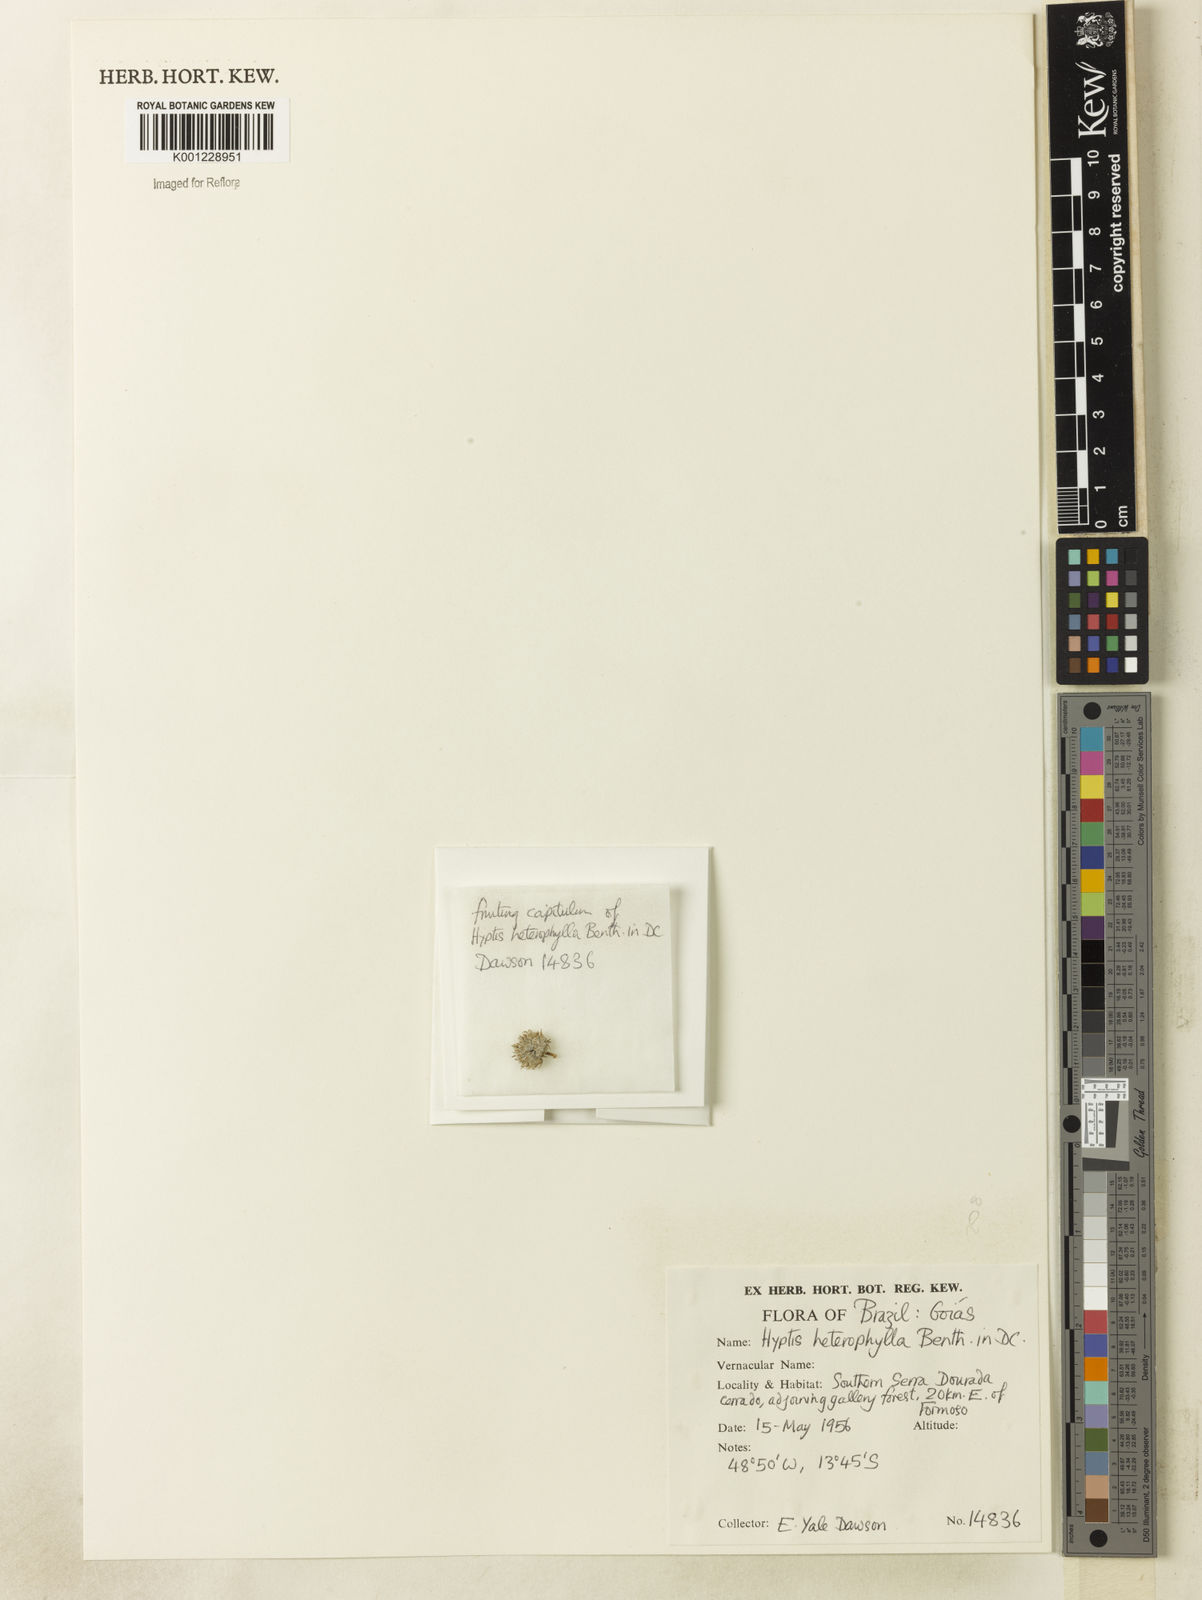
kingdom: Plantae
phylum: Tracheophyta
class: Magnoliopsida
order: Lamiales
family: Lamiaceae
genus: Hyptis
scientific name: Hyptis heterophylla
